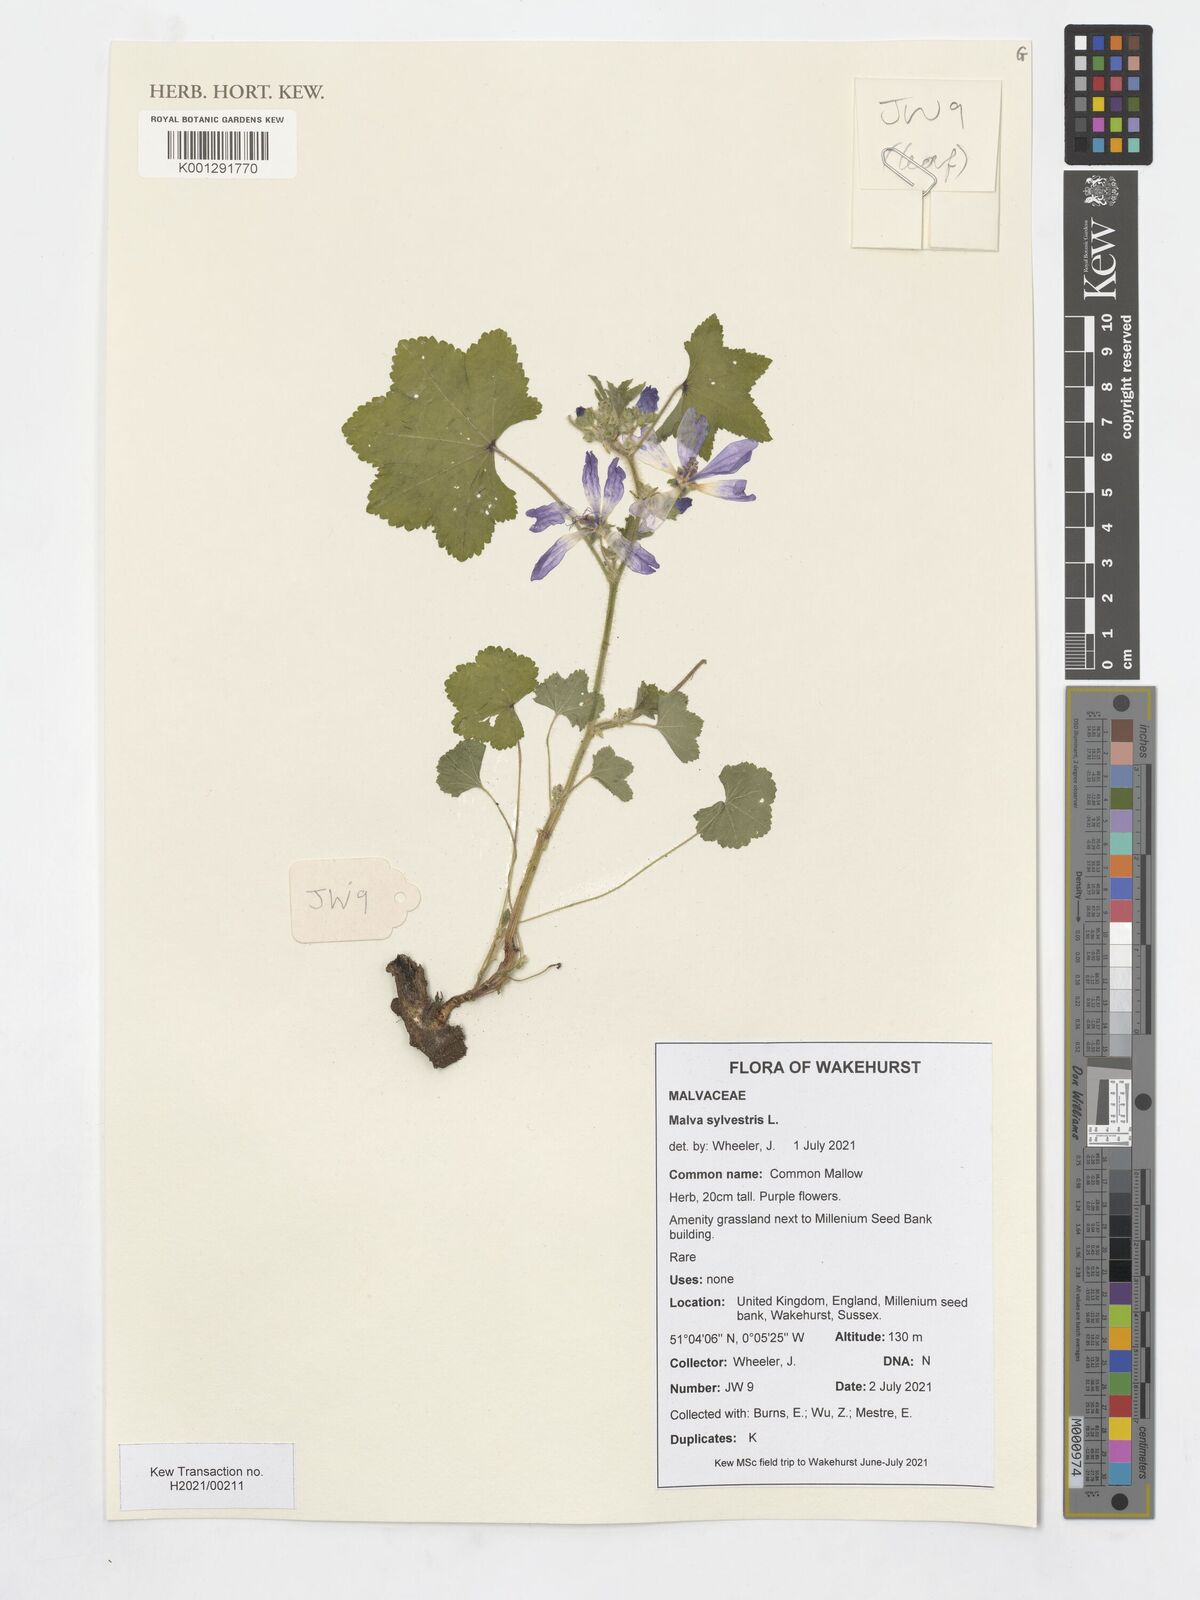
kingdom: Plantae
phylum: Tracheophyta
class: Magnoliopsida
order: Malvales
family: Malvaceae
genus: Malva
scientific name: Malva sylvestris
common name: Common mallow
